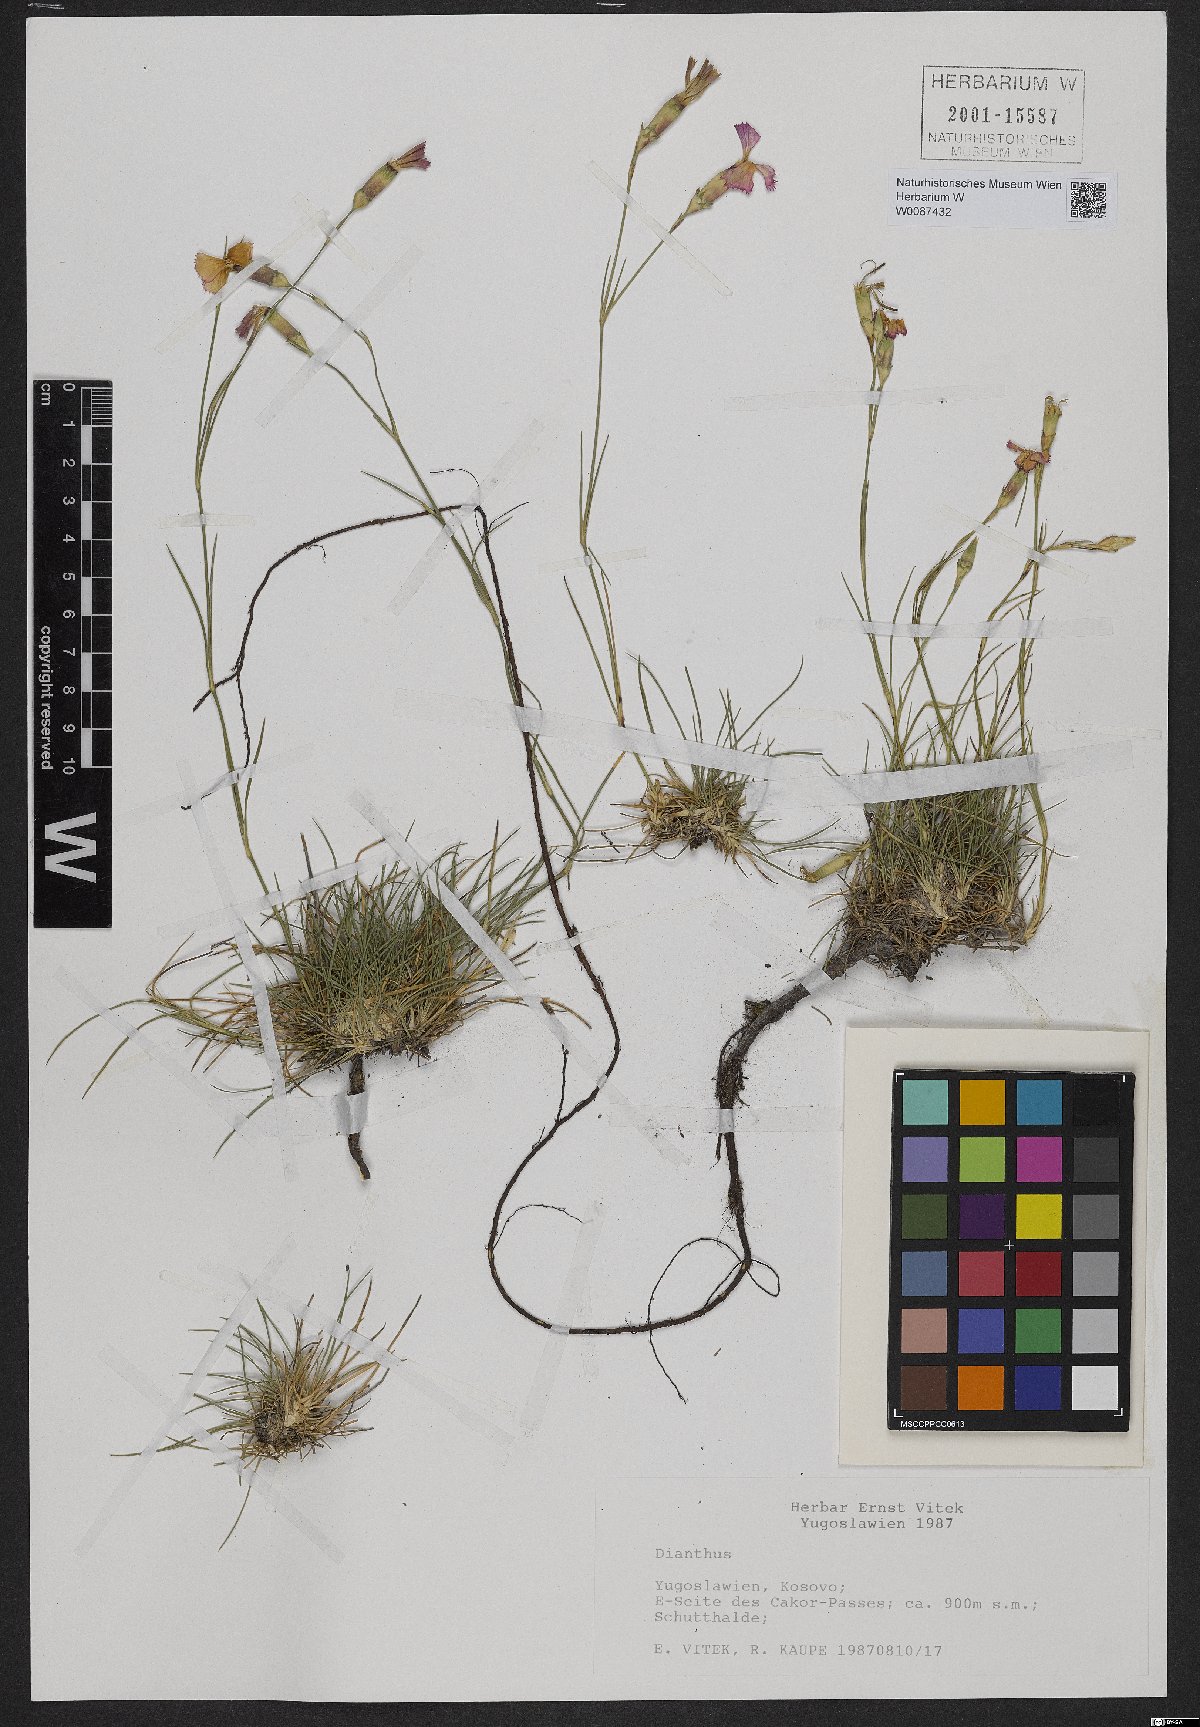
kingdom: Plantae
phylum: Tracheophyta
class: Magnoliopsida
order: Caryophyllales
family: Caryophyllaceae
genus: Dianthus
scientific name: Dianthus
